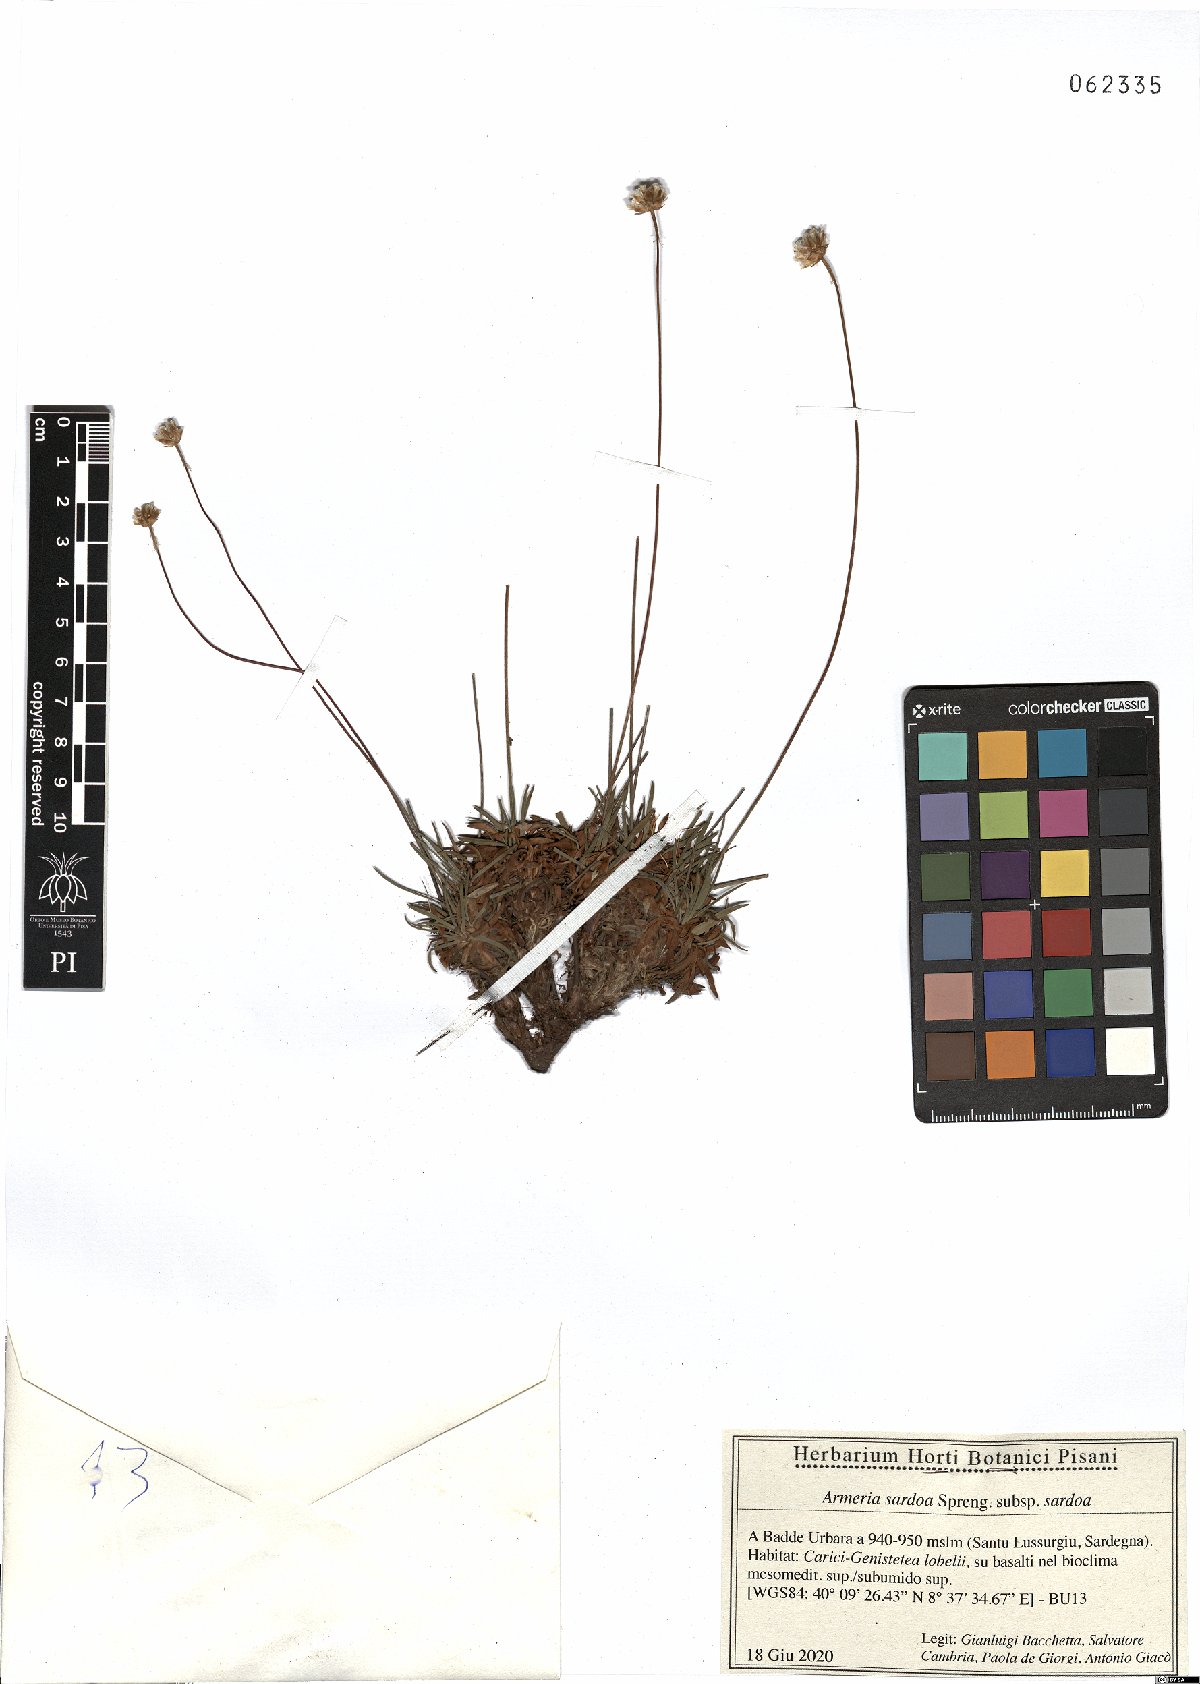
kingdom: Plantae
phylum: Tracheophyta
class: Magnoliopsida
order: Caryophyllales
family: Plumbaginaceae
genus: Armeria
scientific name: Armeria sardoa
